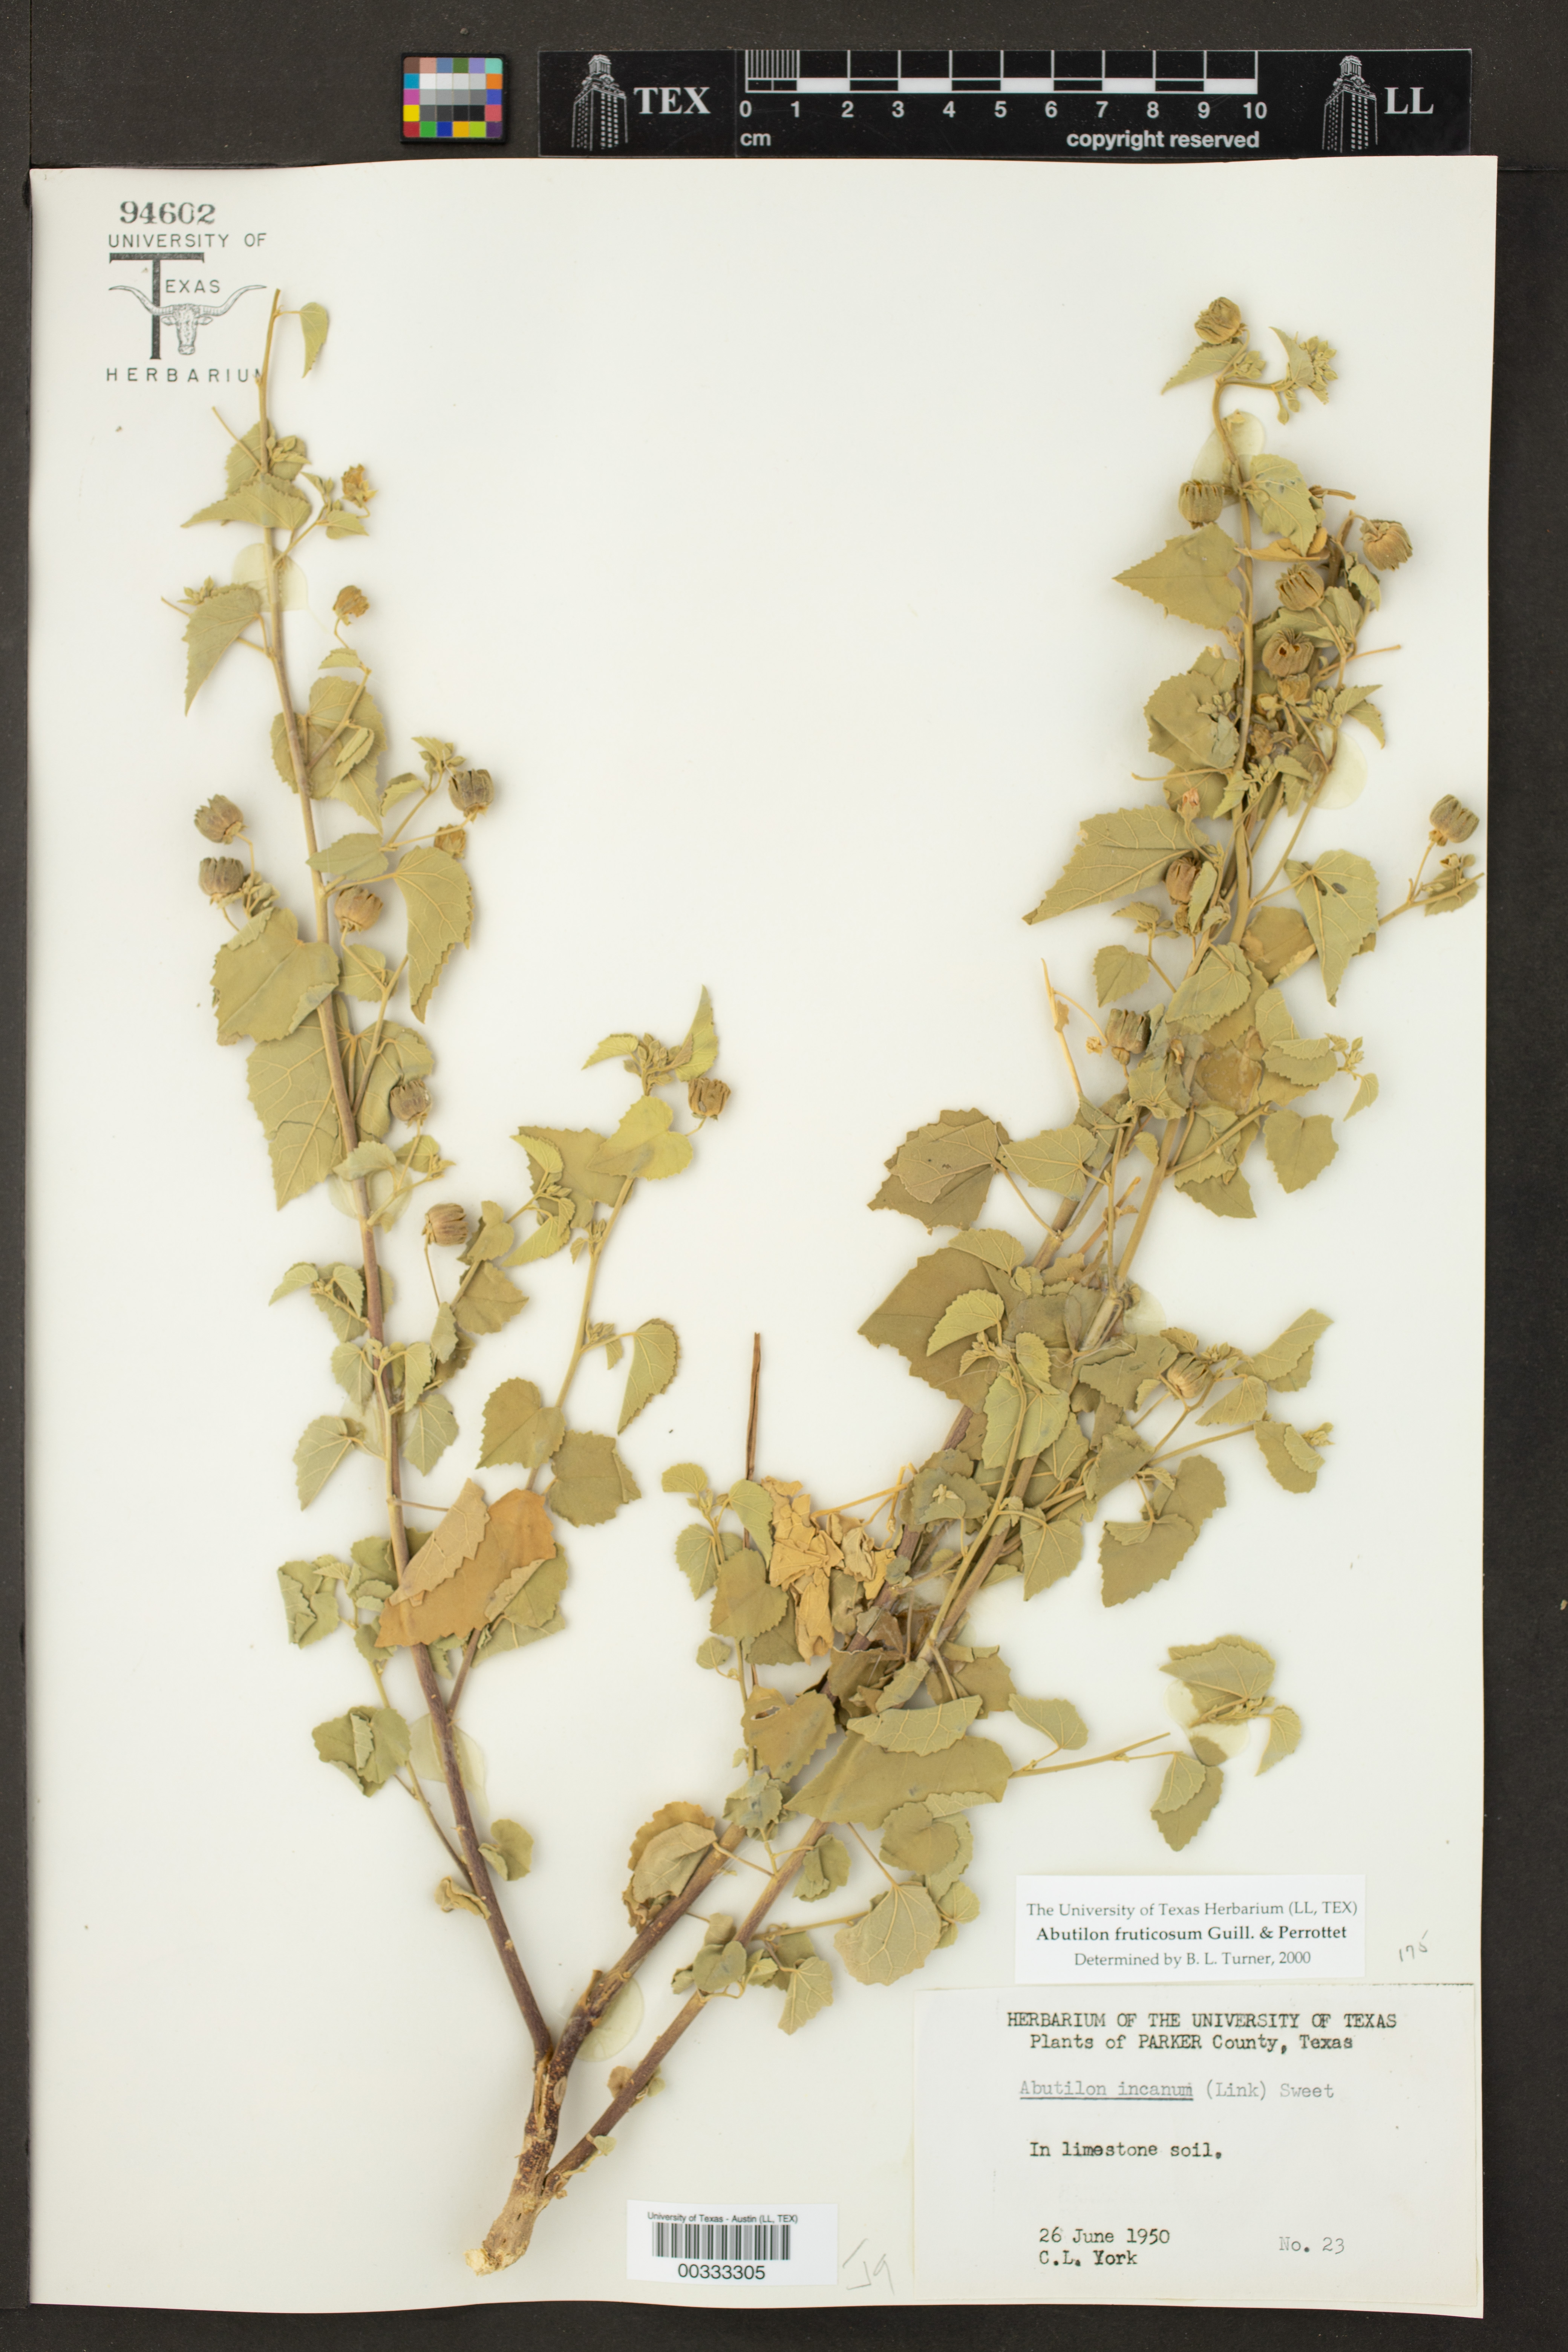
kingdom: Plantae
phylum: Tracheophyta
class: Magnoliopsida
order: Malvales
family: Malvaceae
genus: Abutilon
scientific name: Abutilon fruticosum
